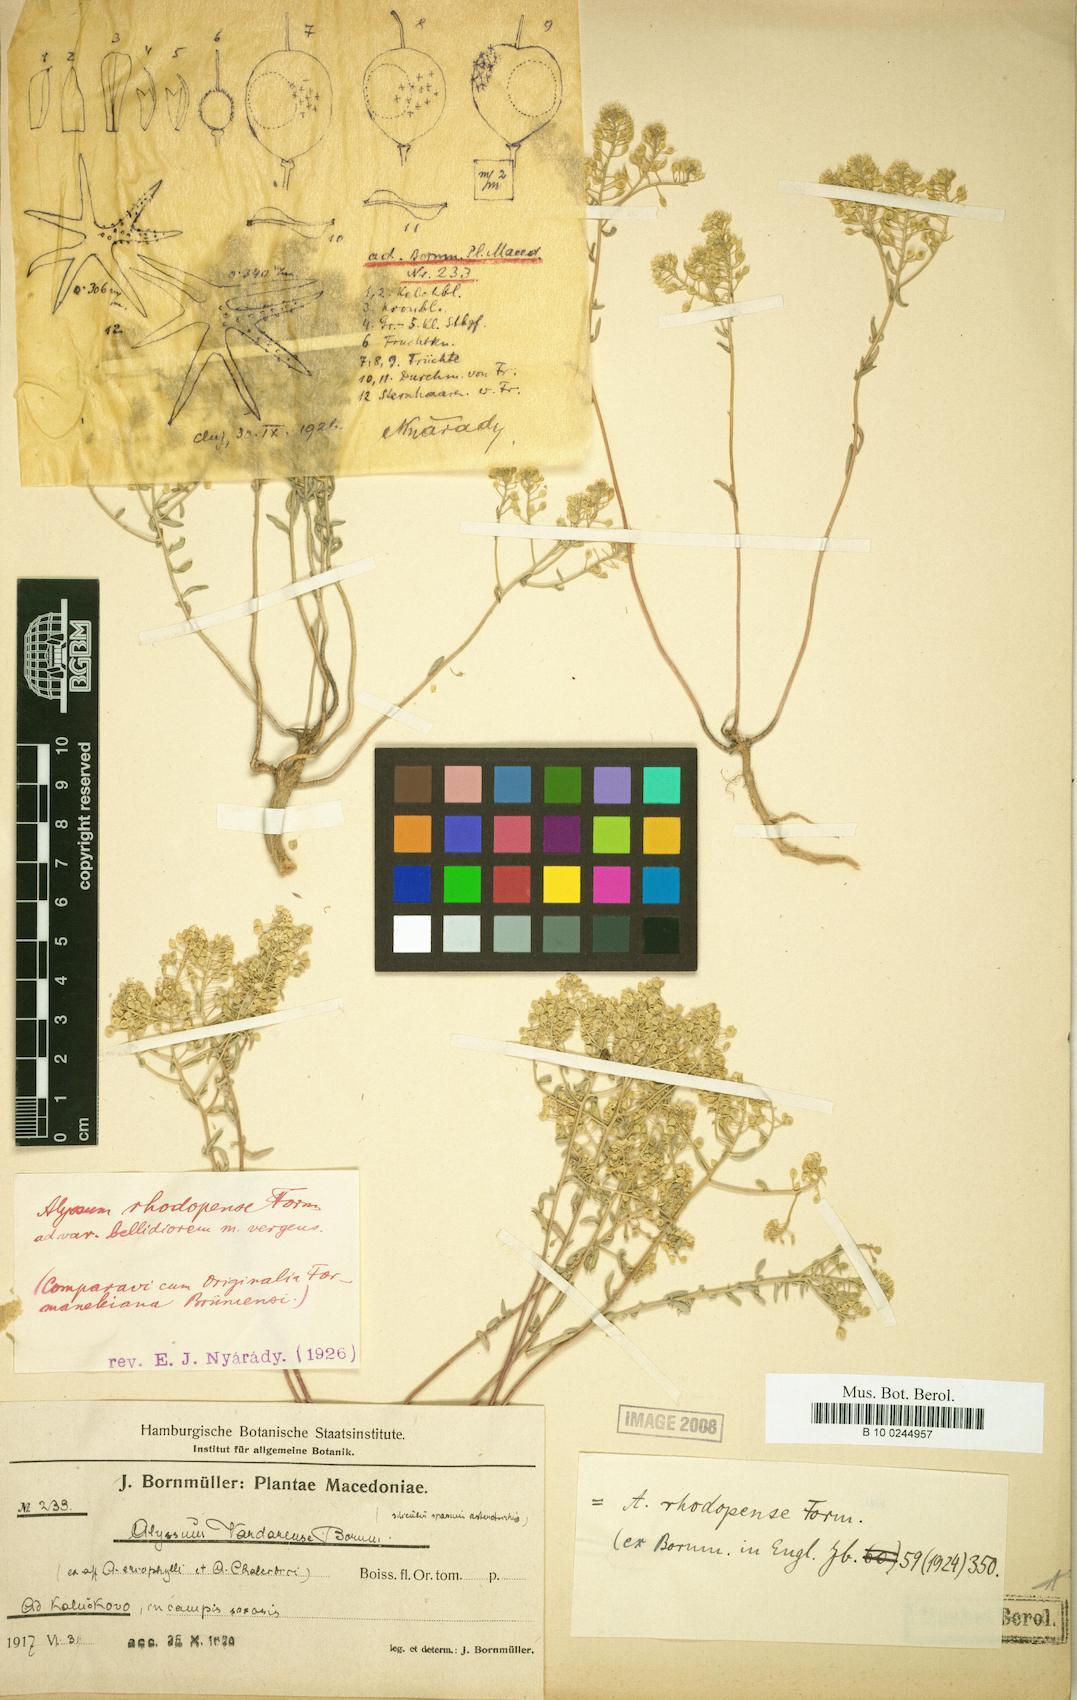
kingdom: Plantae
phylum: Tracheophyta
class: Magnoliopsida
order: Brassicales
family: Brassicaceae
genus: Odontarrhena
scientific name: Odontarrhena corymbosoidea
